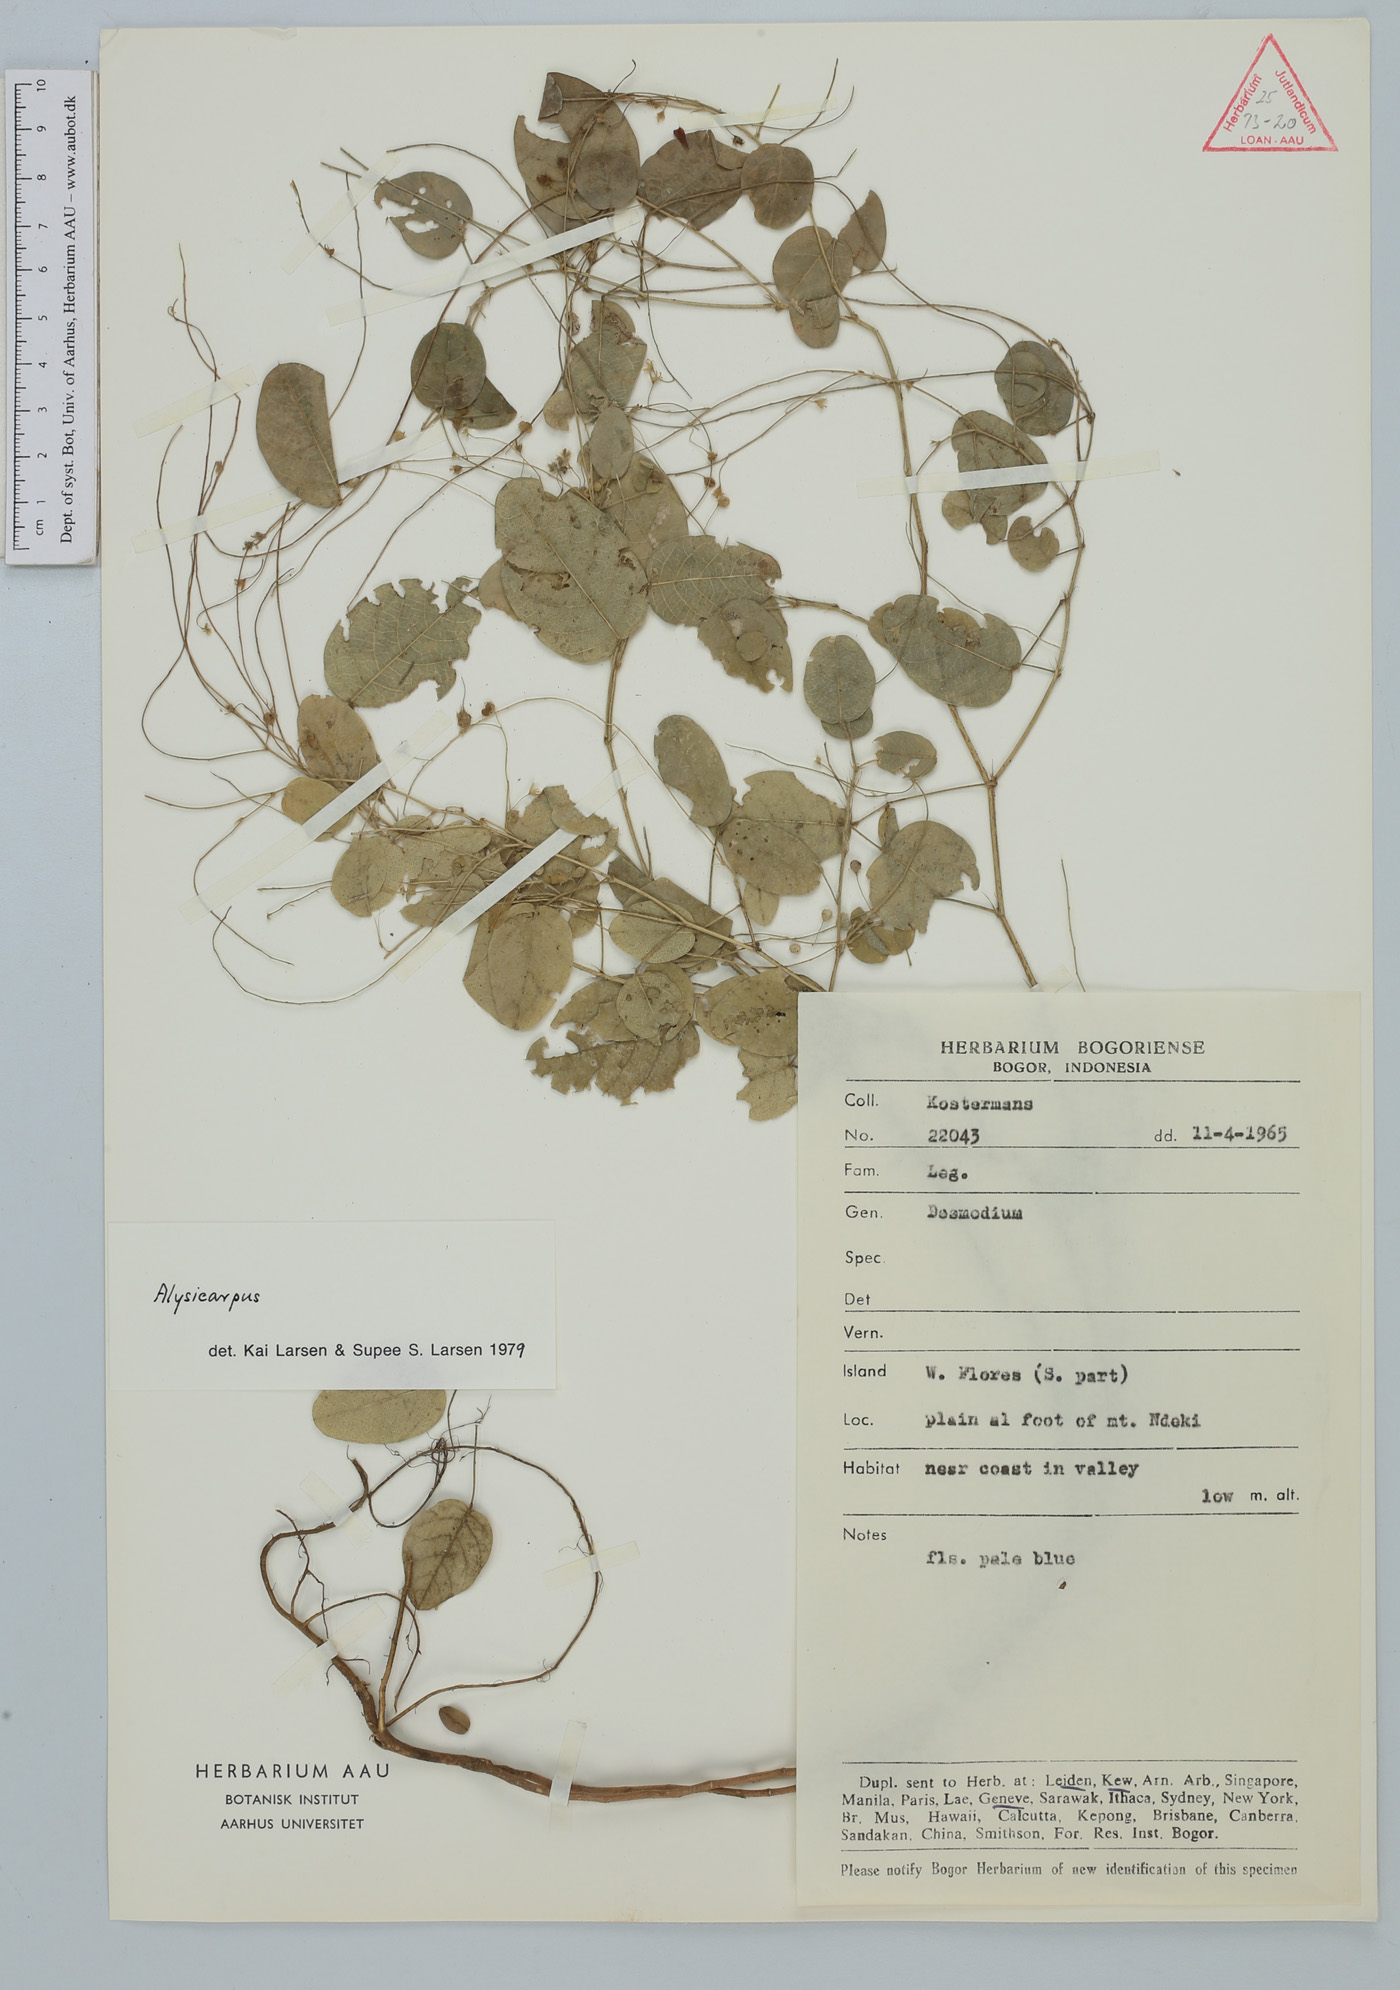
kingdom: Plantae
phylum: Tracheophyta
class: Magnoliopsida
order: Fabales
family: Fabaceae
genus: Alysicarpus
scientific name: Alysicarpus
